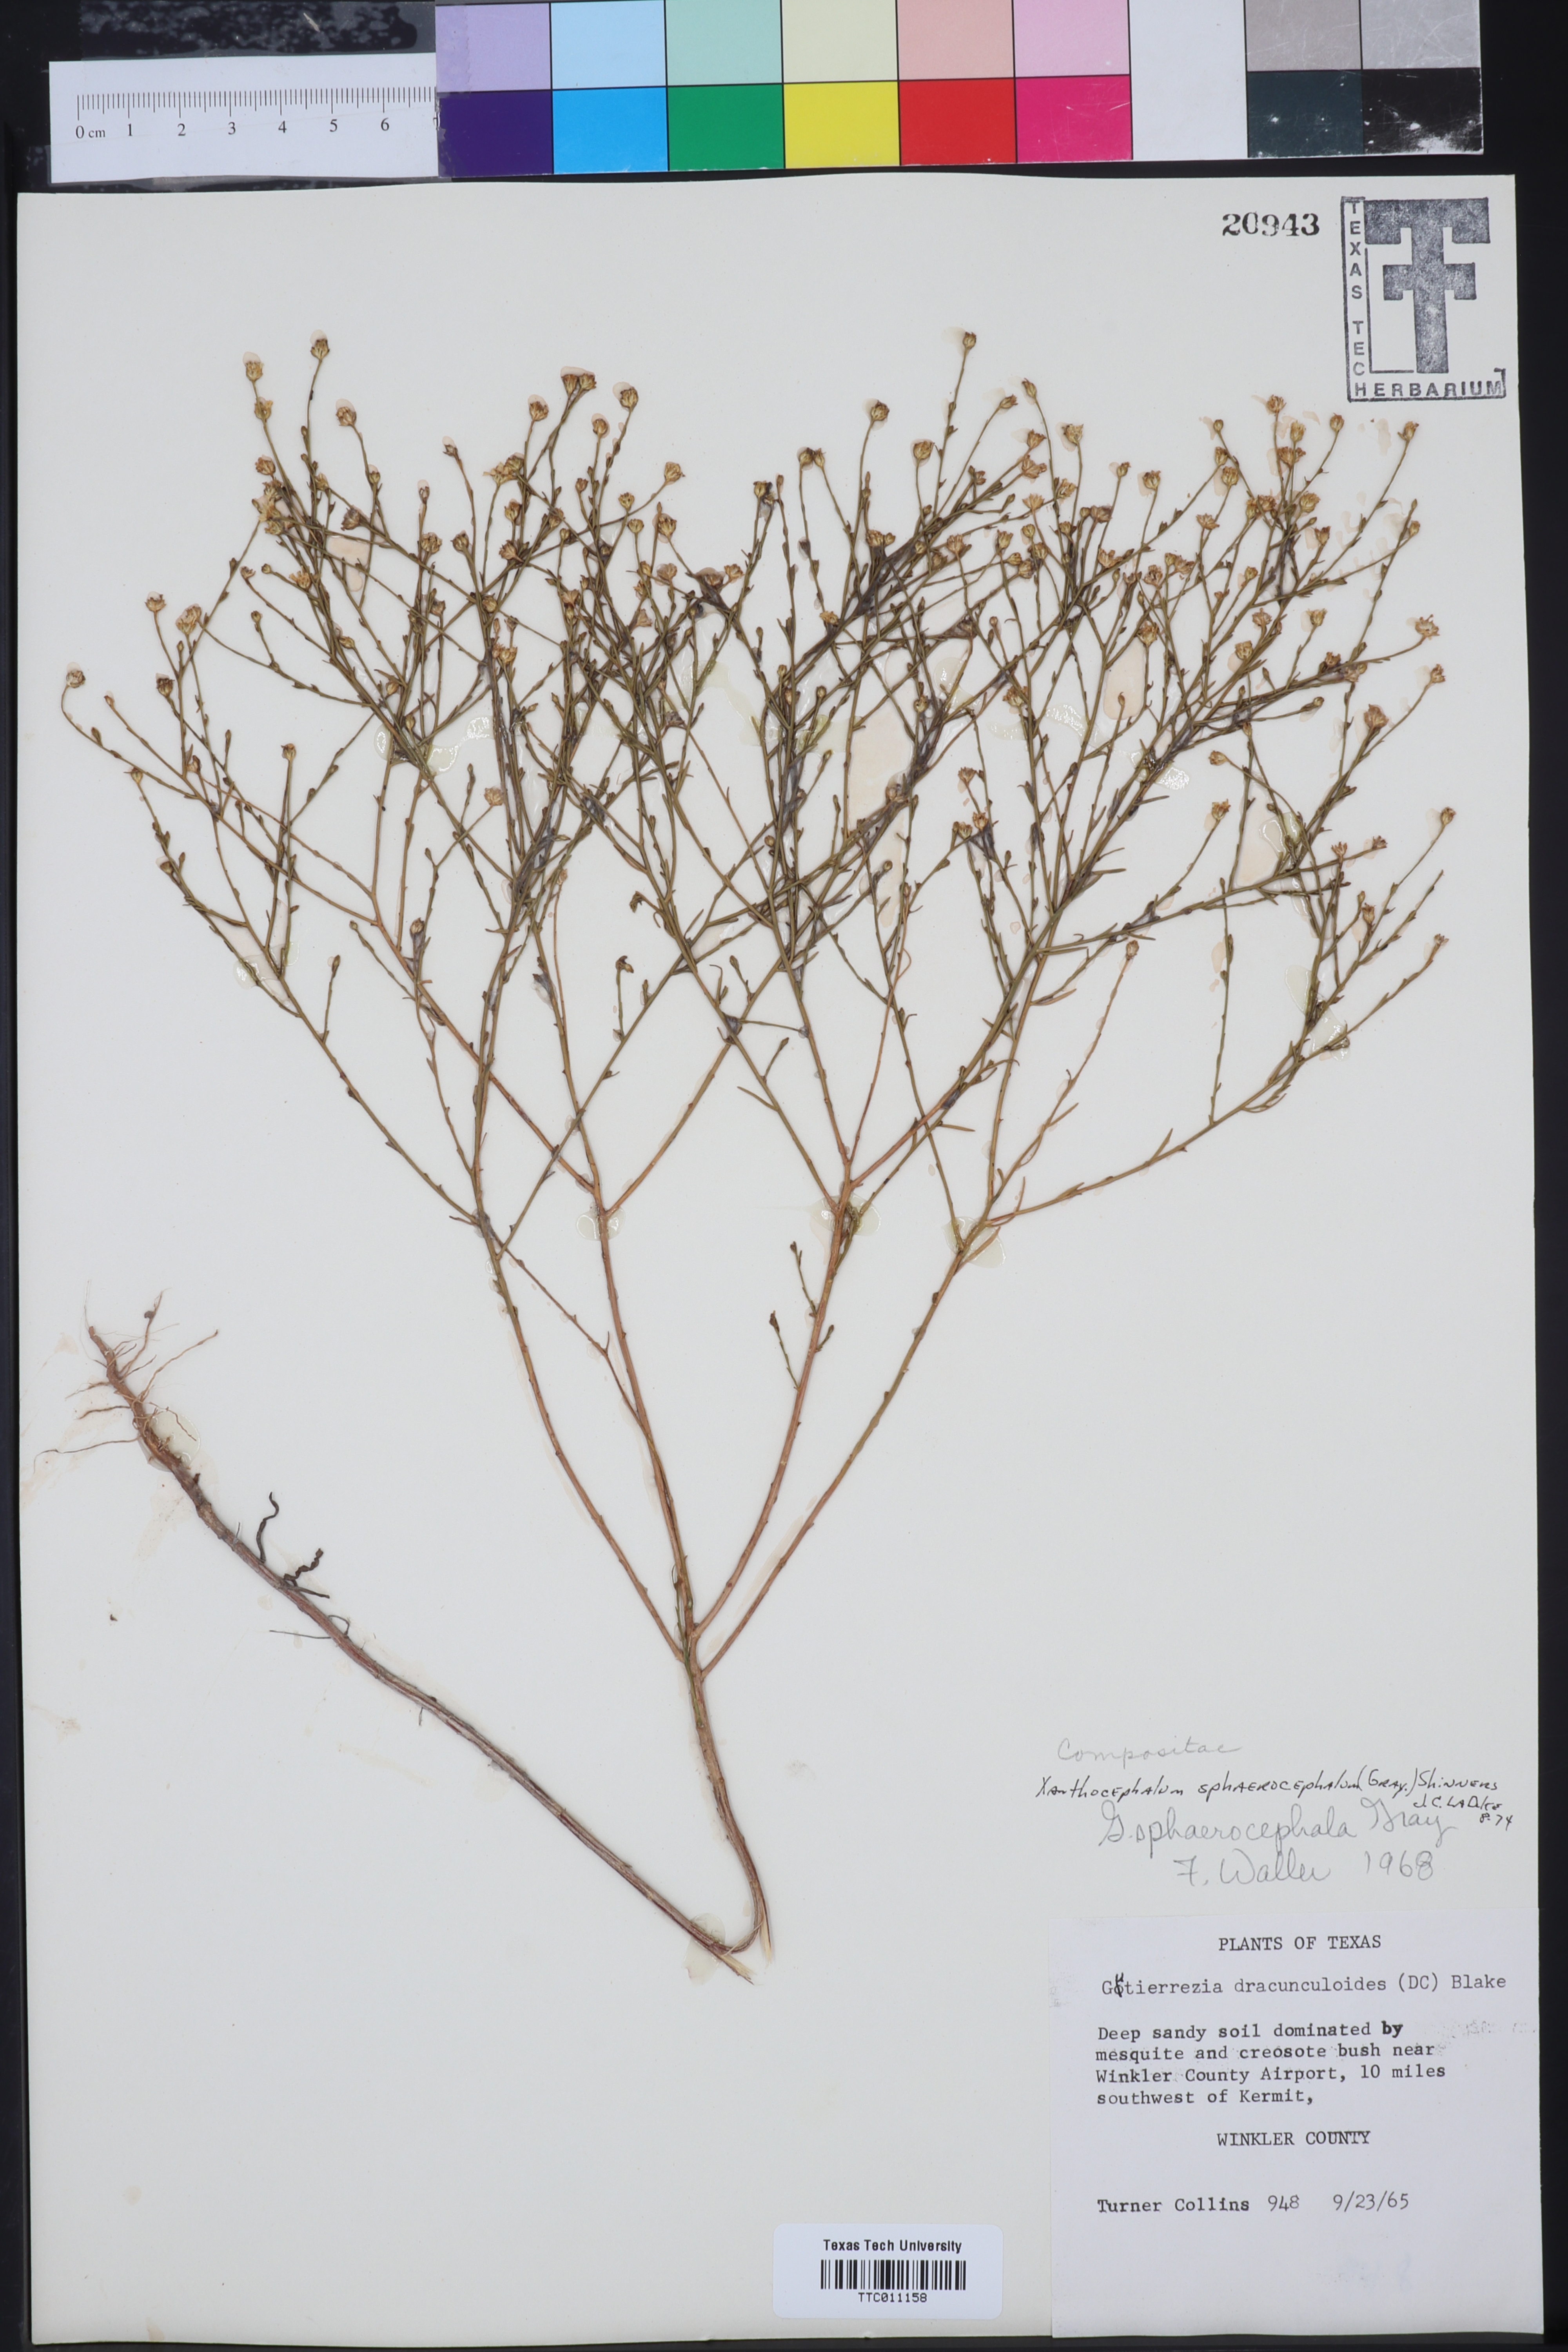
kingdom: Plantae
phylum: Tracheophyta
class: Magnoliopsida
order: Asterales
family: Asteraceae
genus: Gutierrezia
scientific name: Gutierrezia sphaerocephala
